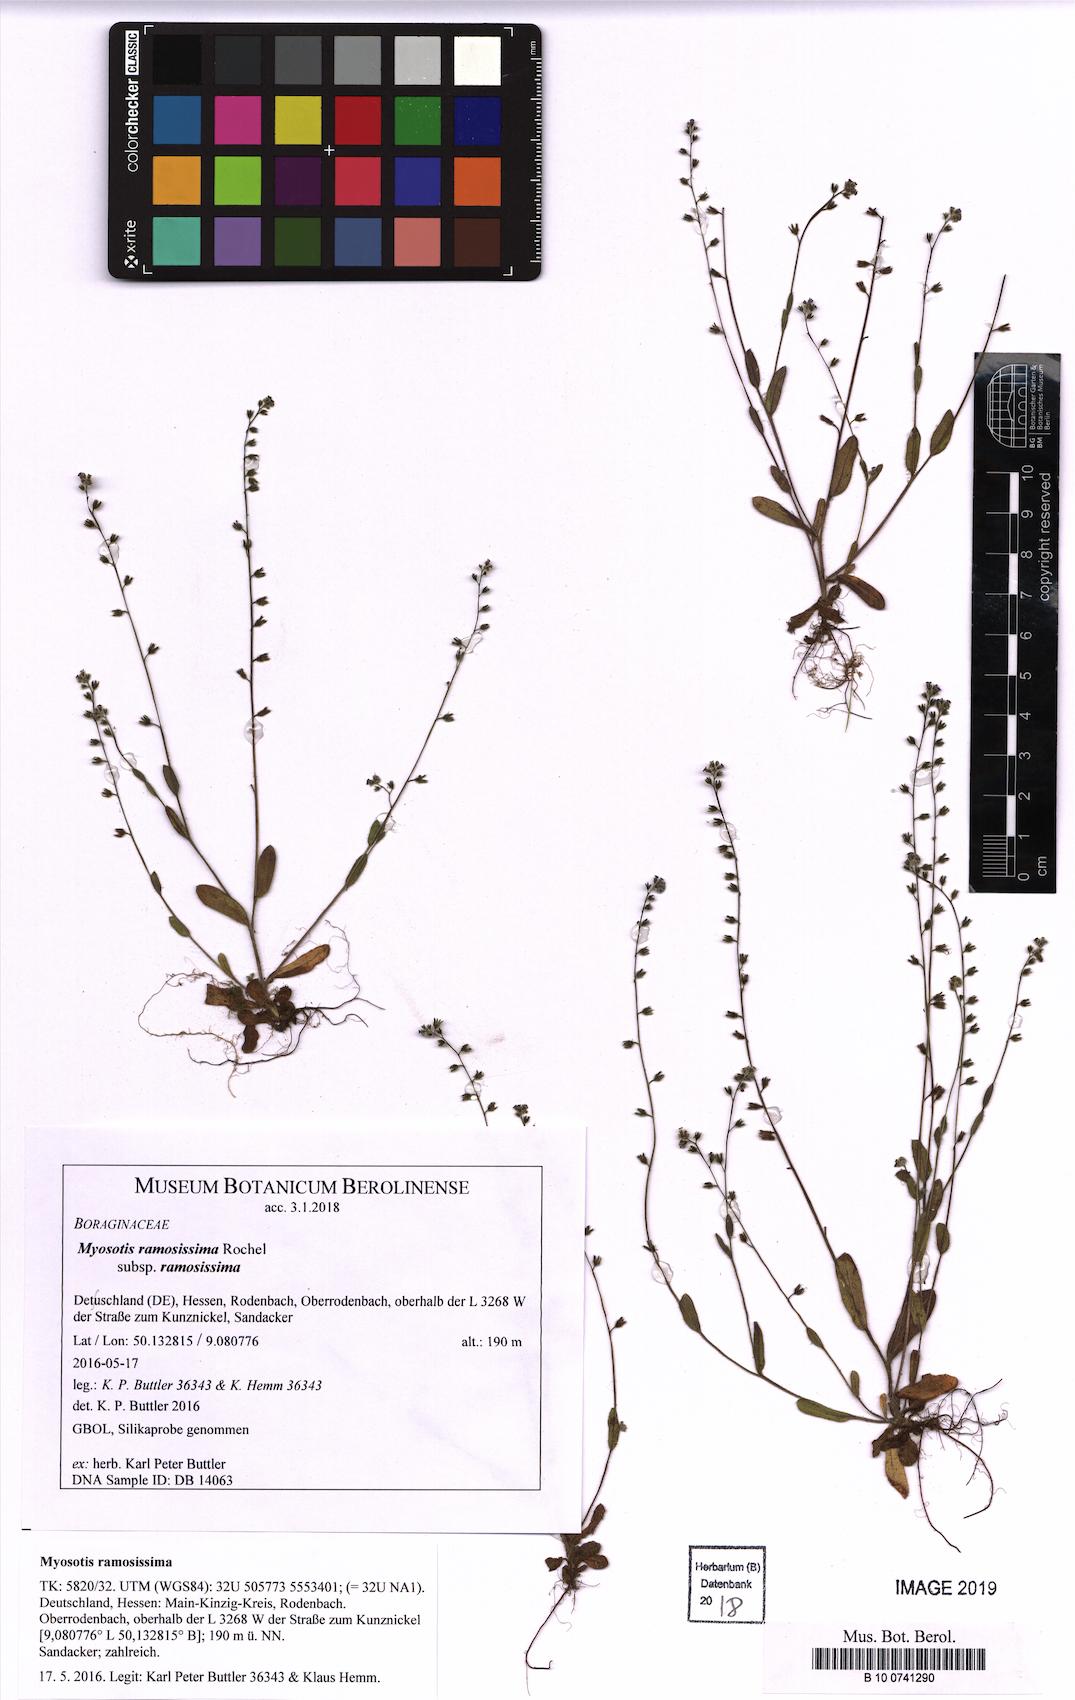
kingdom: Plantae
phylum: Tracheophyta
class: Magnoliopsida
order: Boraginales
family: Boraginaceae
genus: Myosotis
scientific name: Myosotis ramosissima
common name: Early forget-me-not
